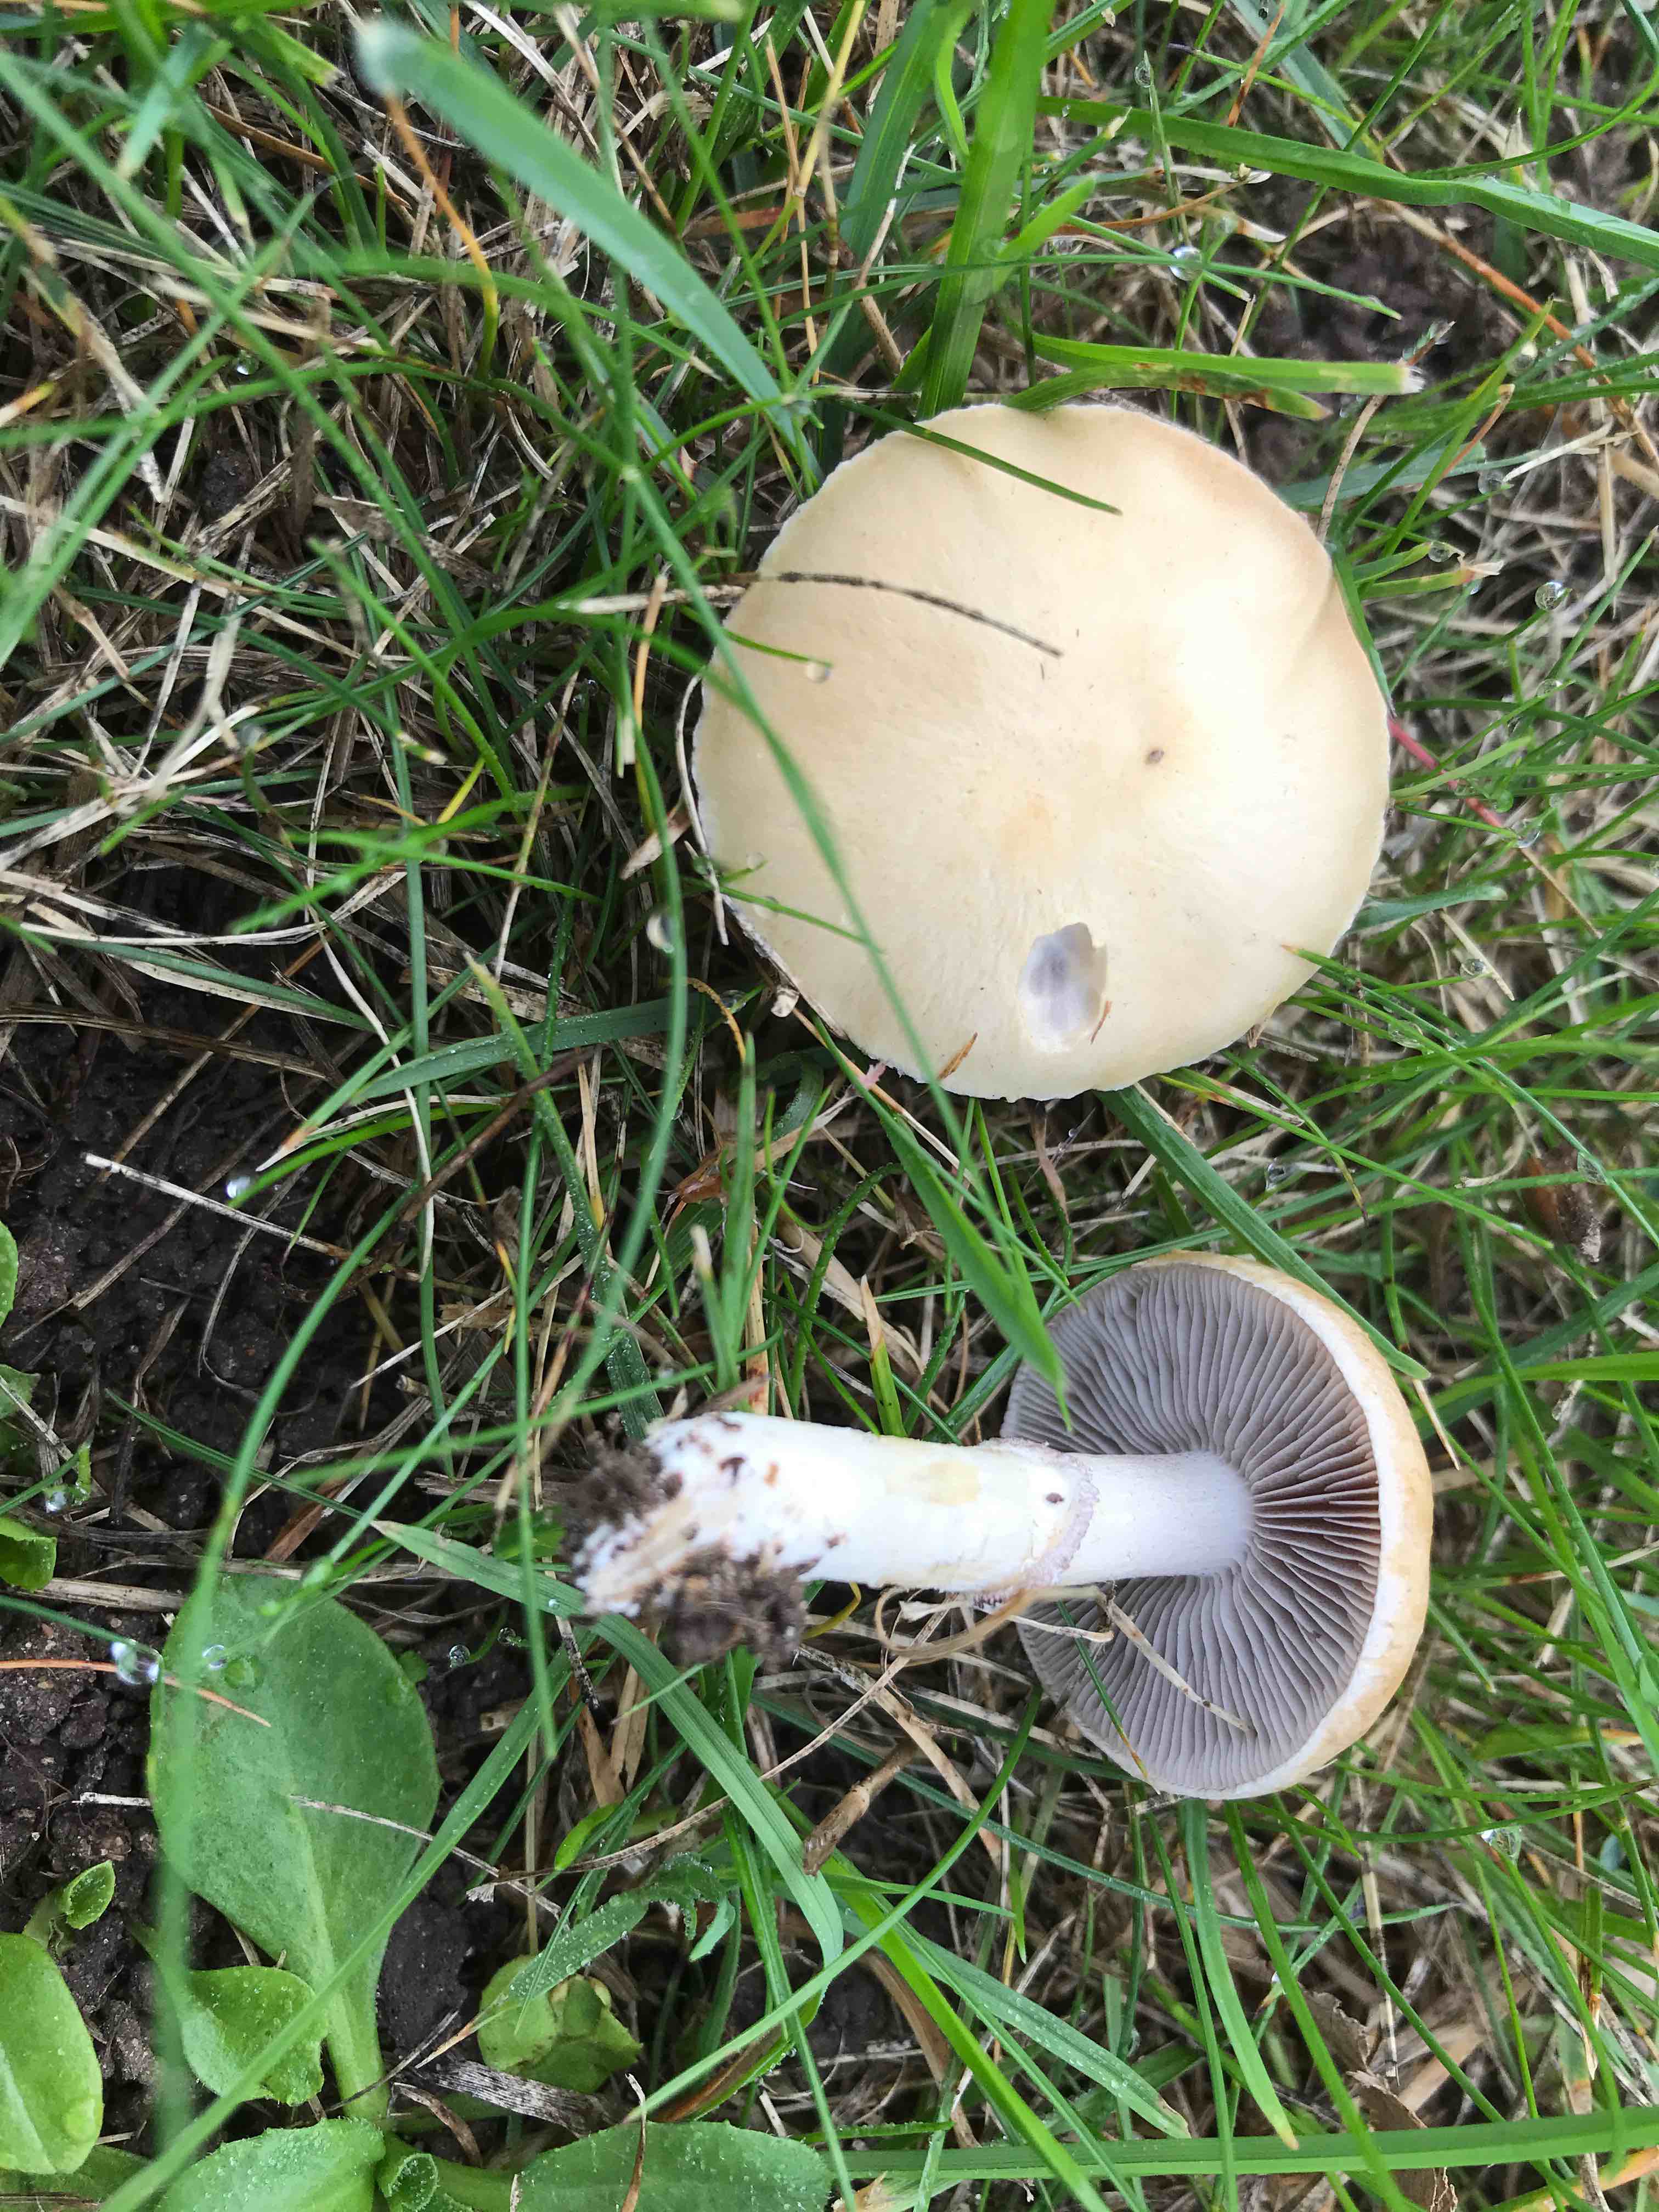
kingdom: Fungi
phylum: Basidiomycota
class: Agaricomycetes
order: Agaricales
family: Hymenogastraceae
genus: Psilocybe
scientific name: Psilocybe coronilla
